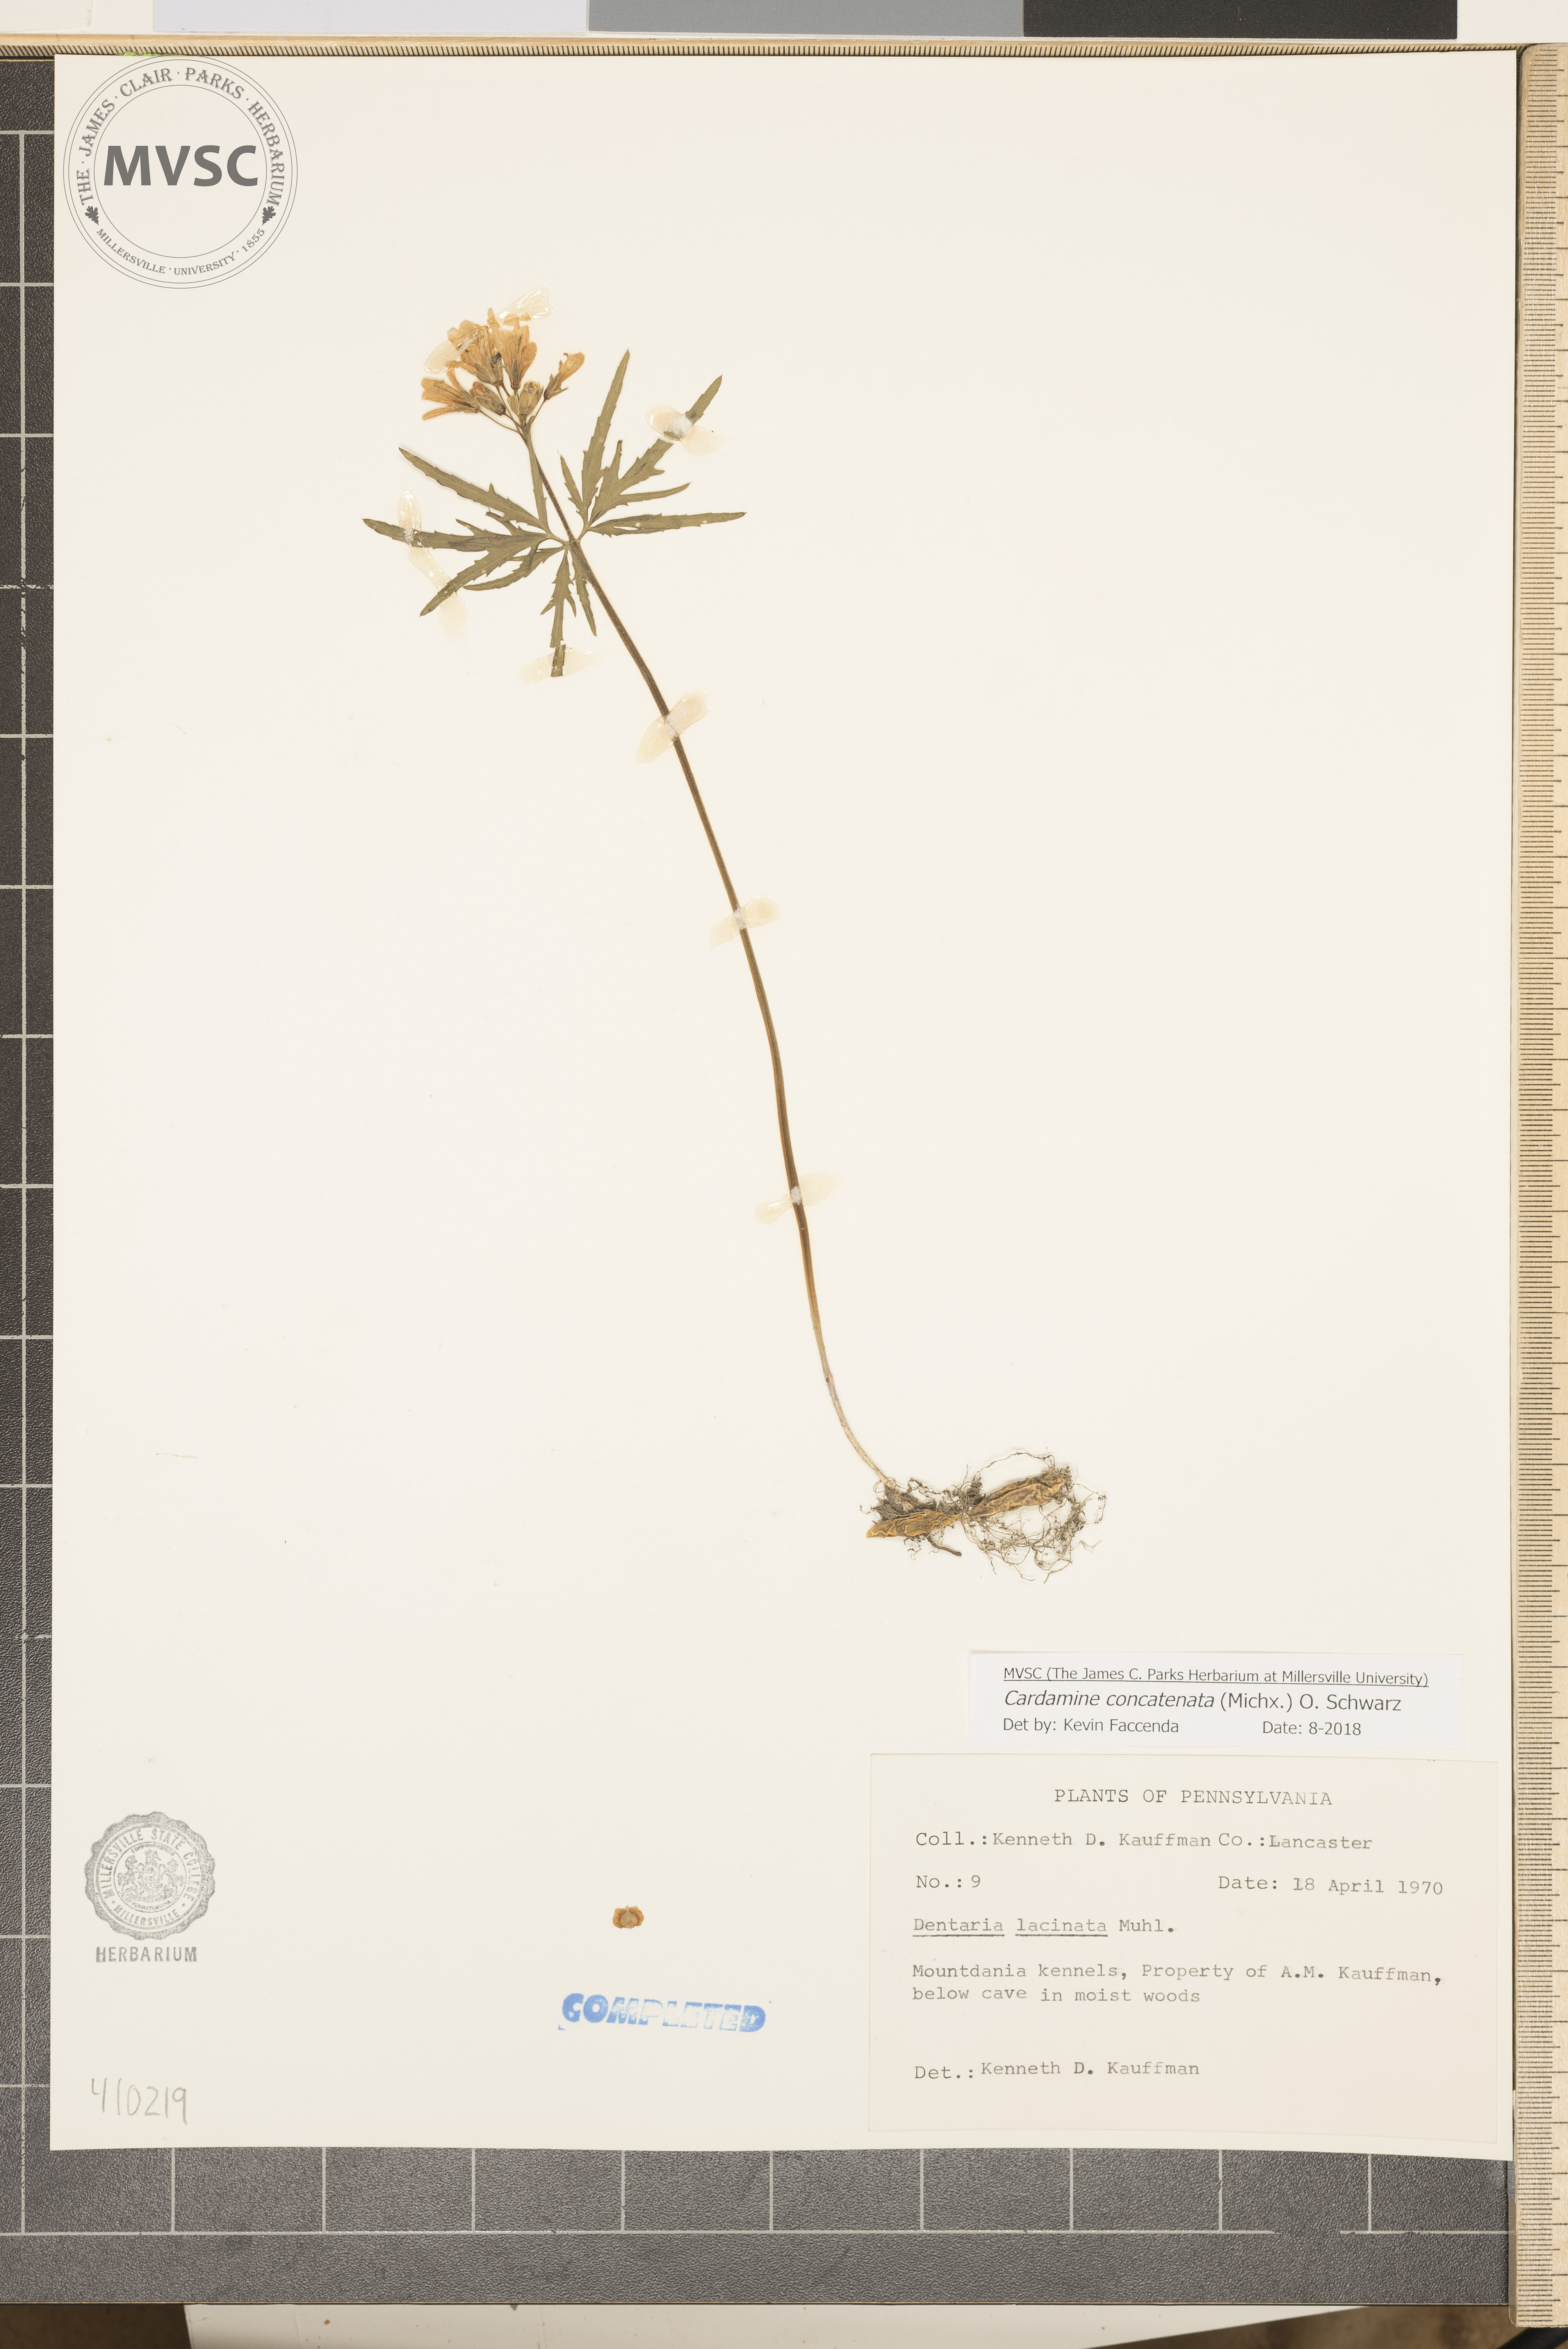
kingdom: Plantae
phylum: Tracheophyta
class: Magnoliopsida
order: Brassicales
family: Brassicaceae
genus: Cardamine
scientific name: Cardamine concatenata
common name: Cut-leaf toothcup
